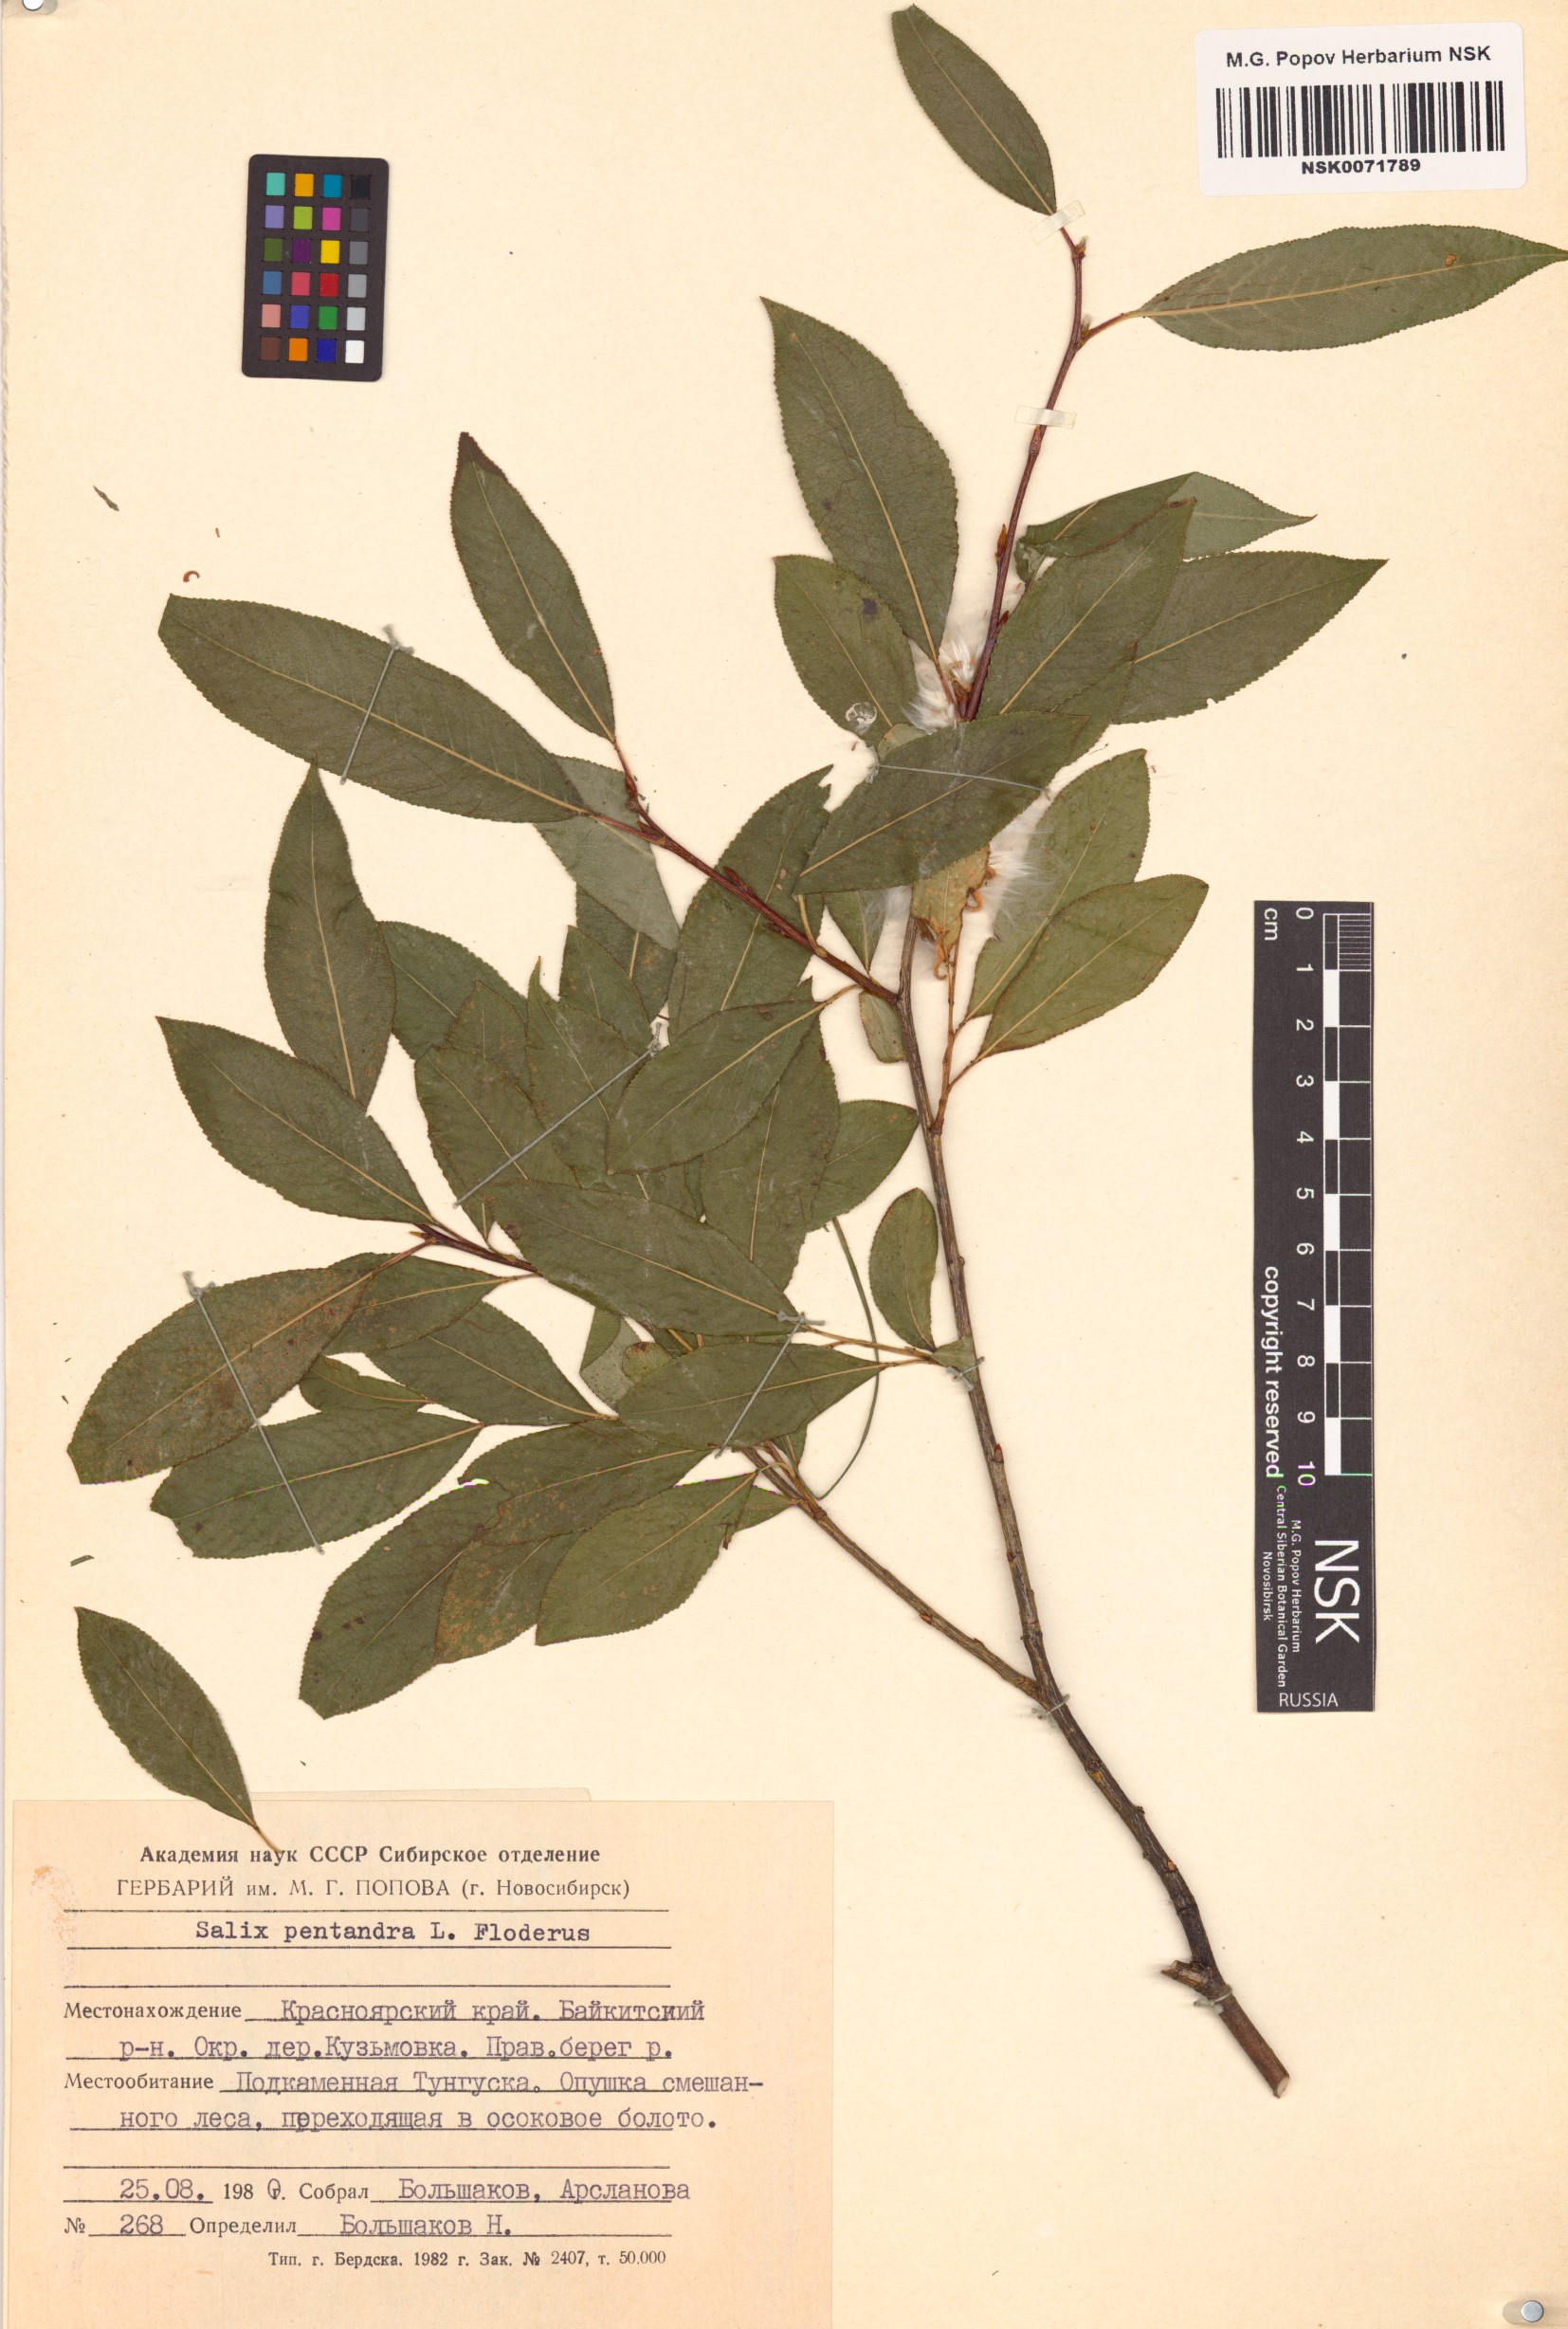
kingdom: Plantae
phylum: Tracheophyta
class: Magnoliopsida
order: Malpighiales
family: Salicaceae
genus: Salix
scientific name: Salix pentandra
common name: Bay willow
